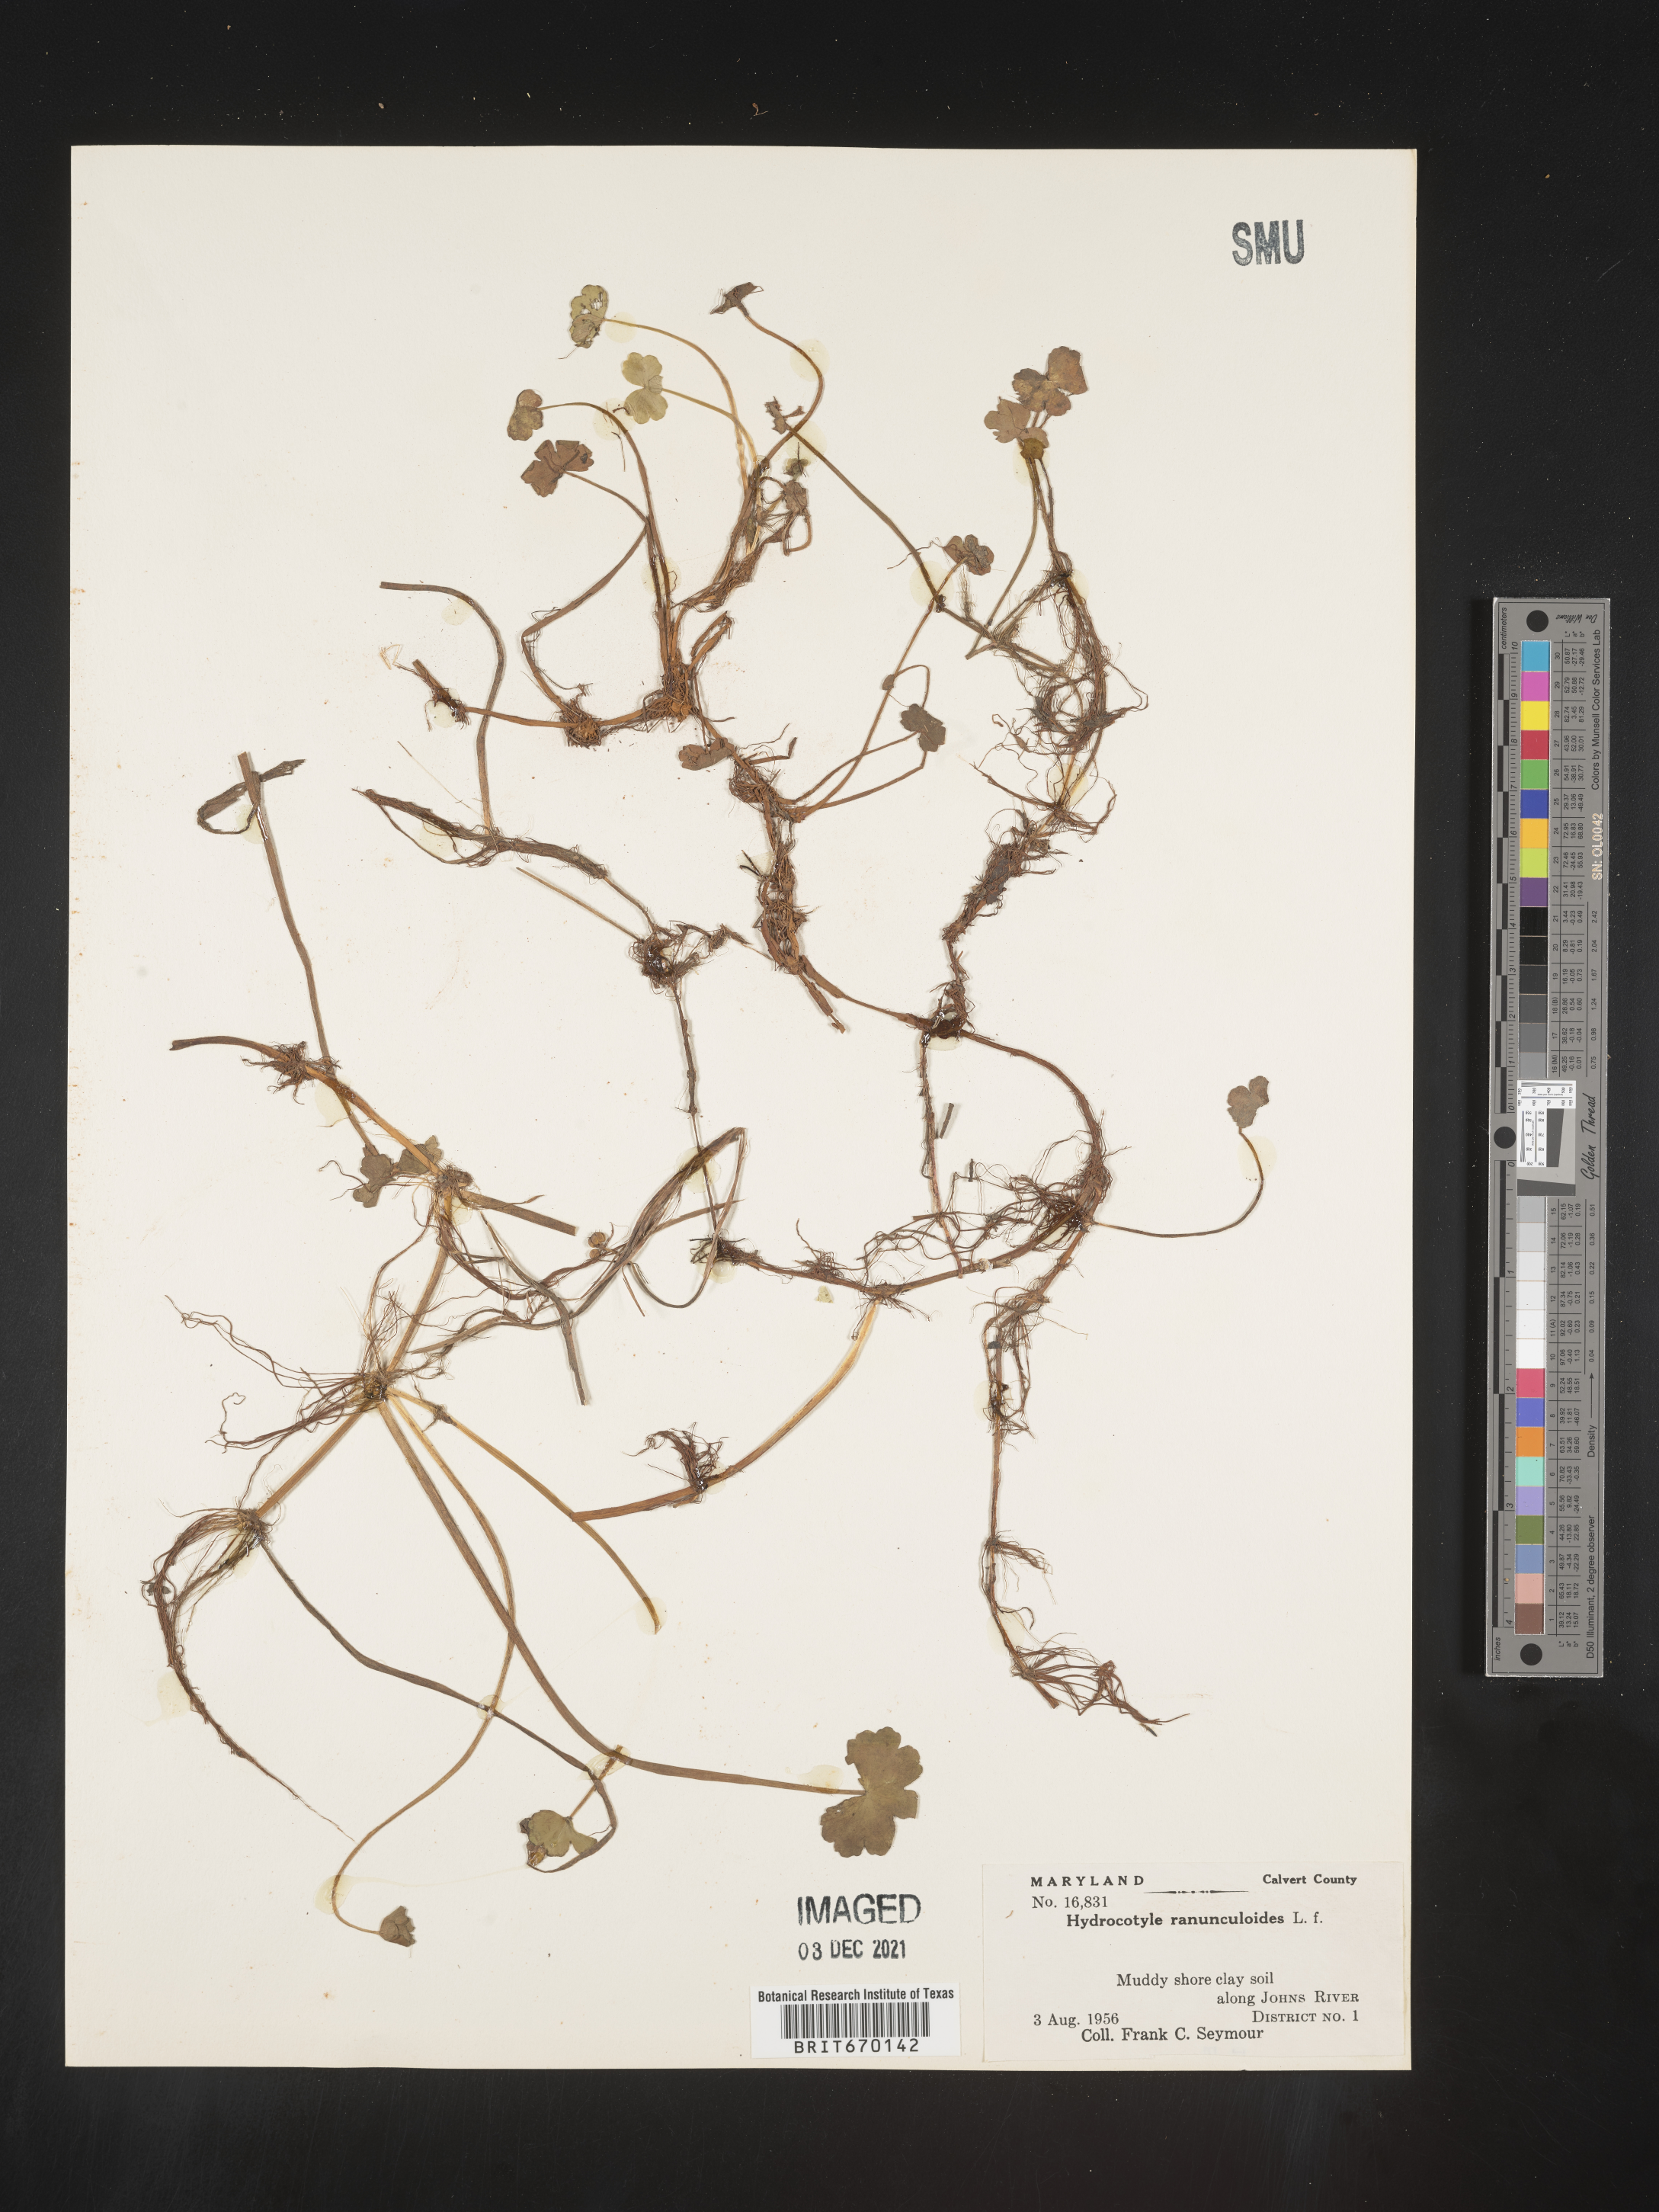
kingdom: Plantae
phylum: Tracheophyta
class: Magnoliopsida
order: Apiales
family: Araliaceae
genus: Hydrocotyle
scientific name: Hydrocotyle ranunculoides
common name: Floating pennywort
